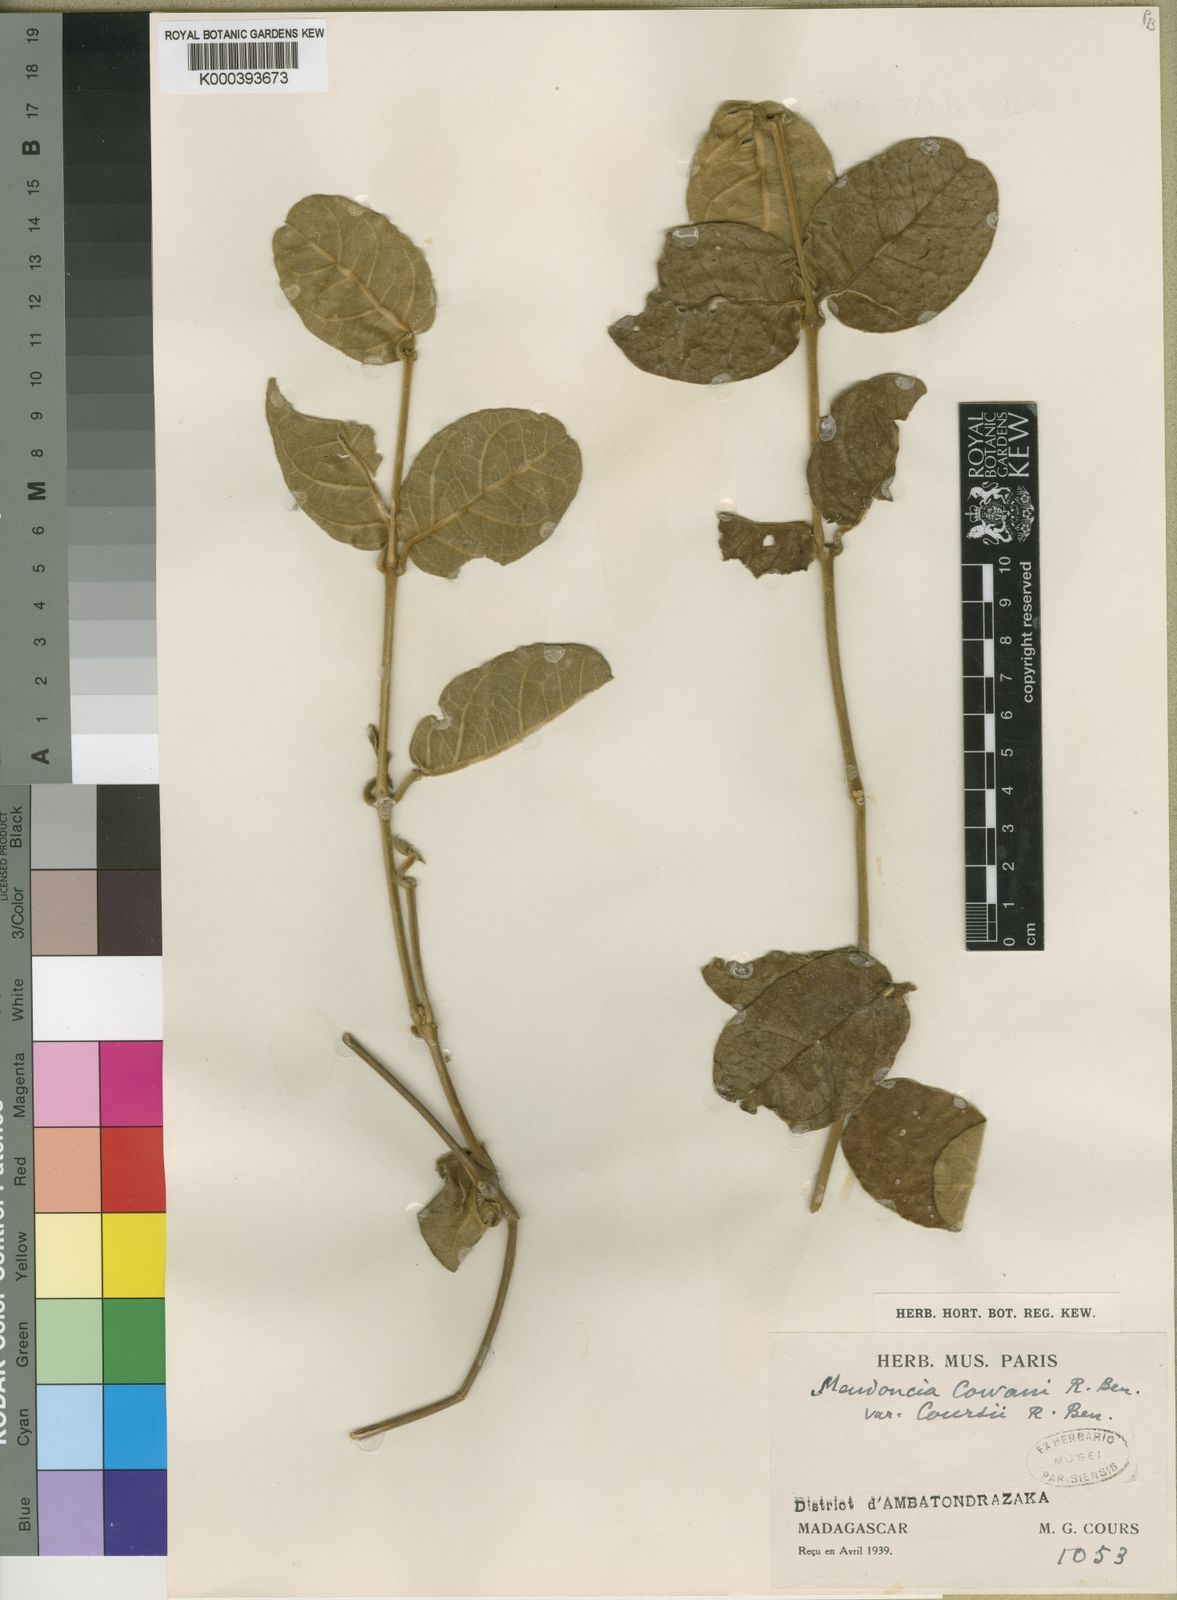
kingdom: Plantae
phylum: Tracheophyta
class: Magnoliopsida
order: Lamiales
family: Acanthaceae
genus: Mendoncia
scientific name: Mendoncia cowanii
